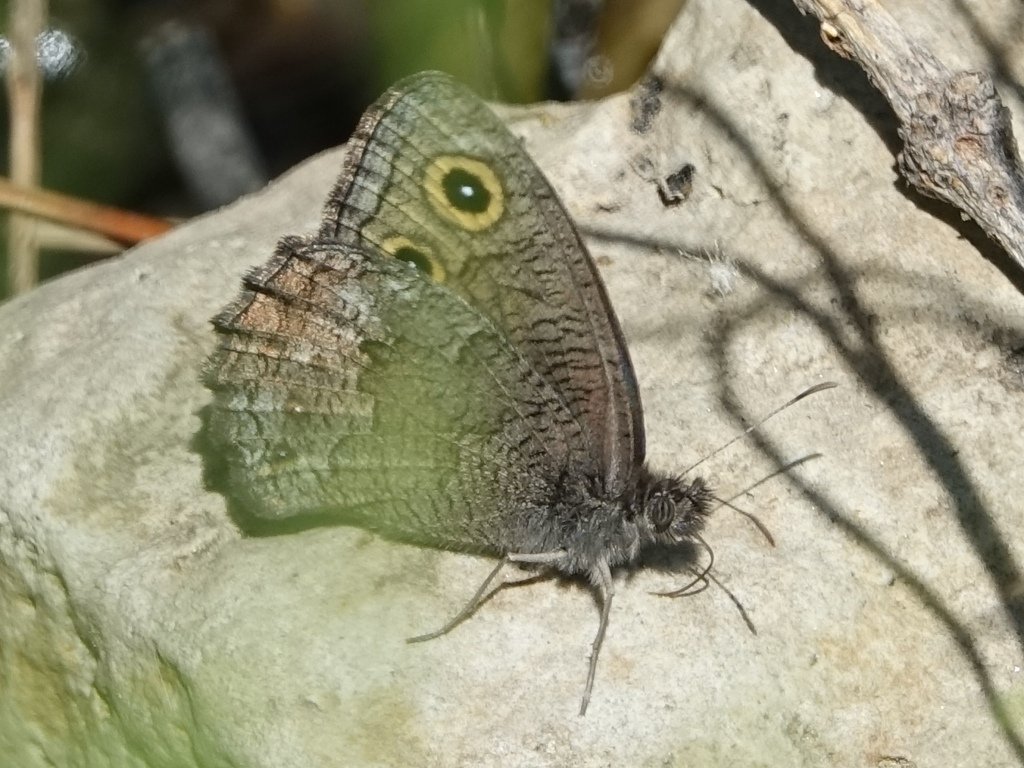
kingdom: Animalia
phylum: Arthropoda
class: Insecta
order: Lepidoptera
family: Nymphalidae
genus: Cercyonis
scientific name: Cercyonis sthenele
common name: Great Basin Wood-Nymph
